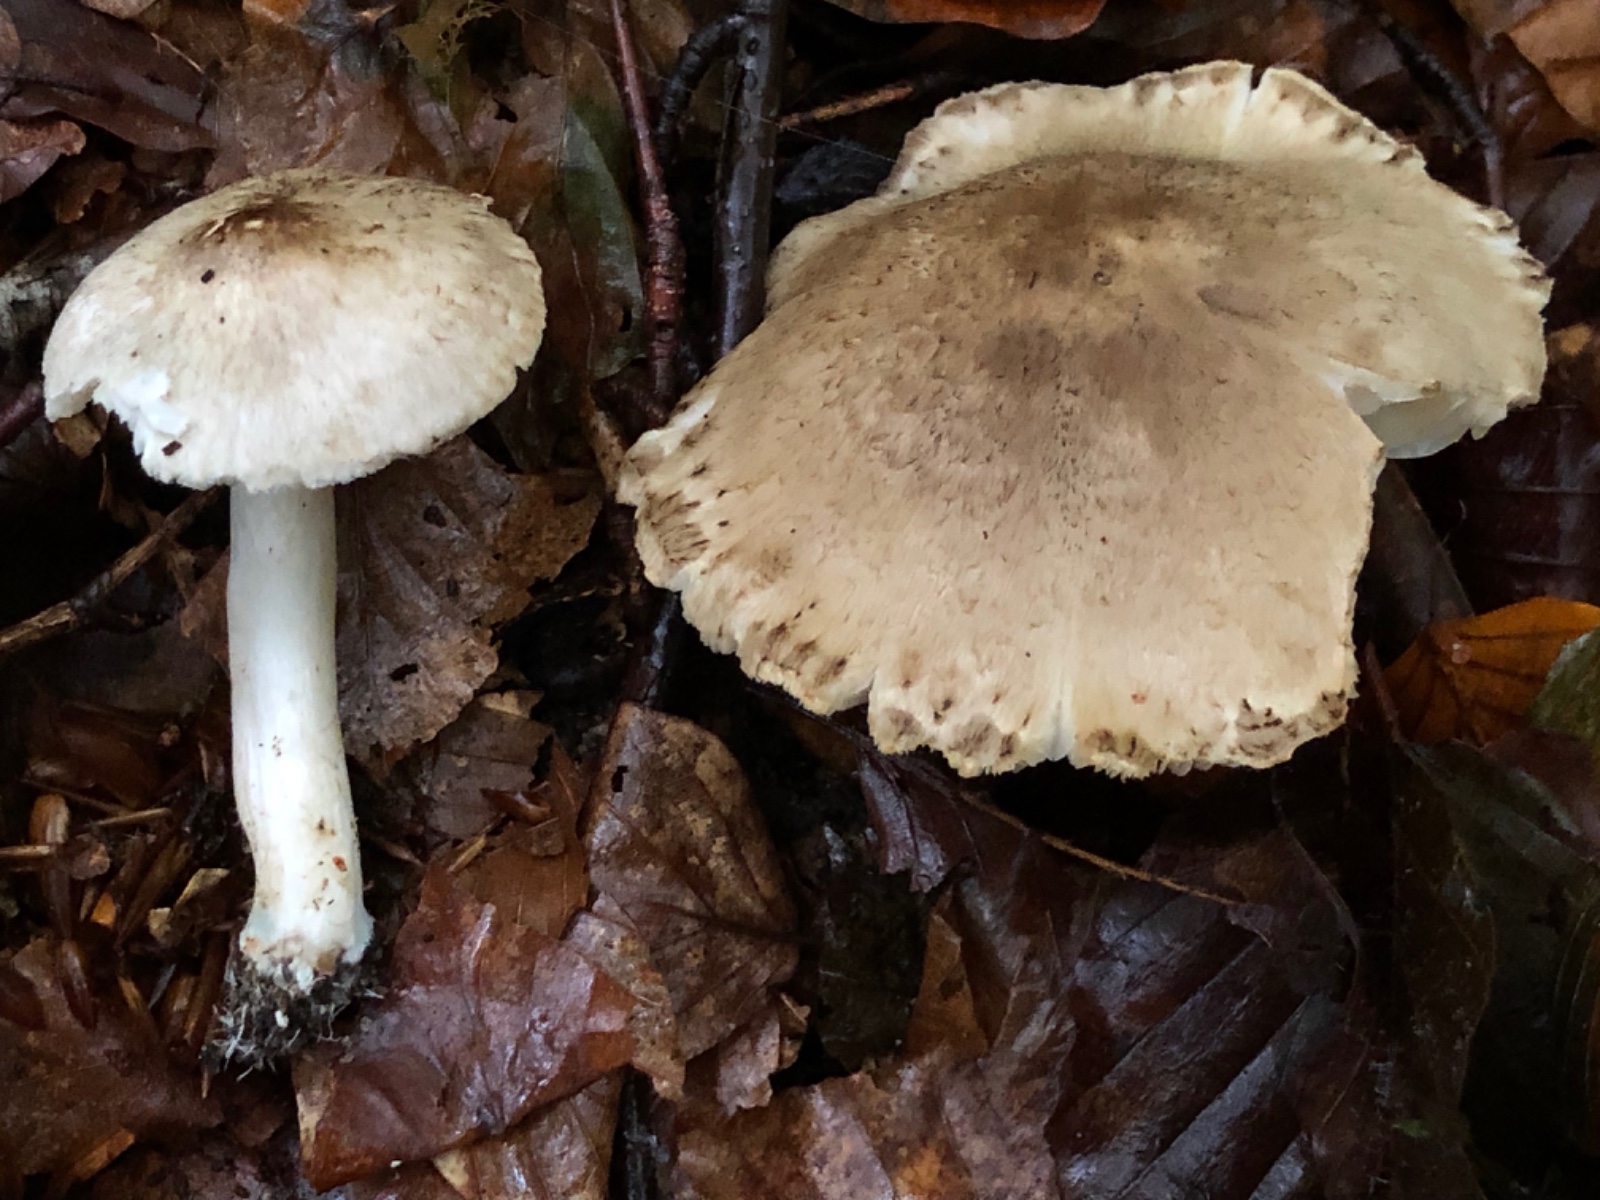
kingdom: Fungi
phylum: Basidiomycota
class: Agaricomycetes
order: Agaricales
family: Tricholomataceae
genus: Tricholoma
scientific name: Tricholoma scalpturatum
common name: gulplettet ridderhat
